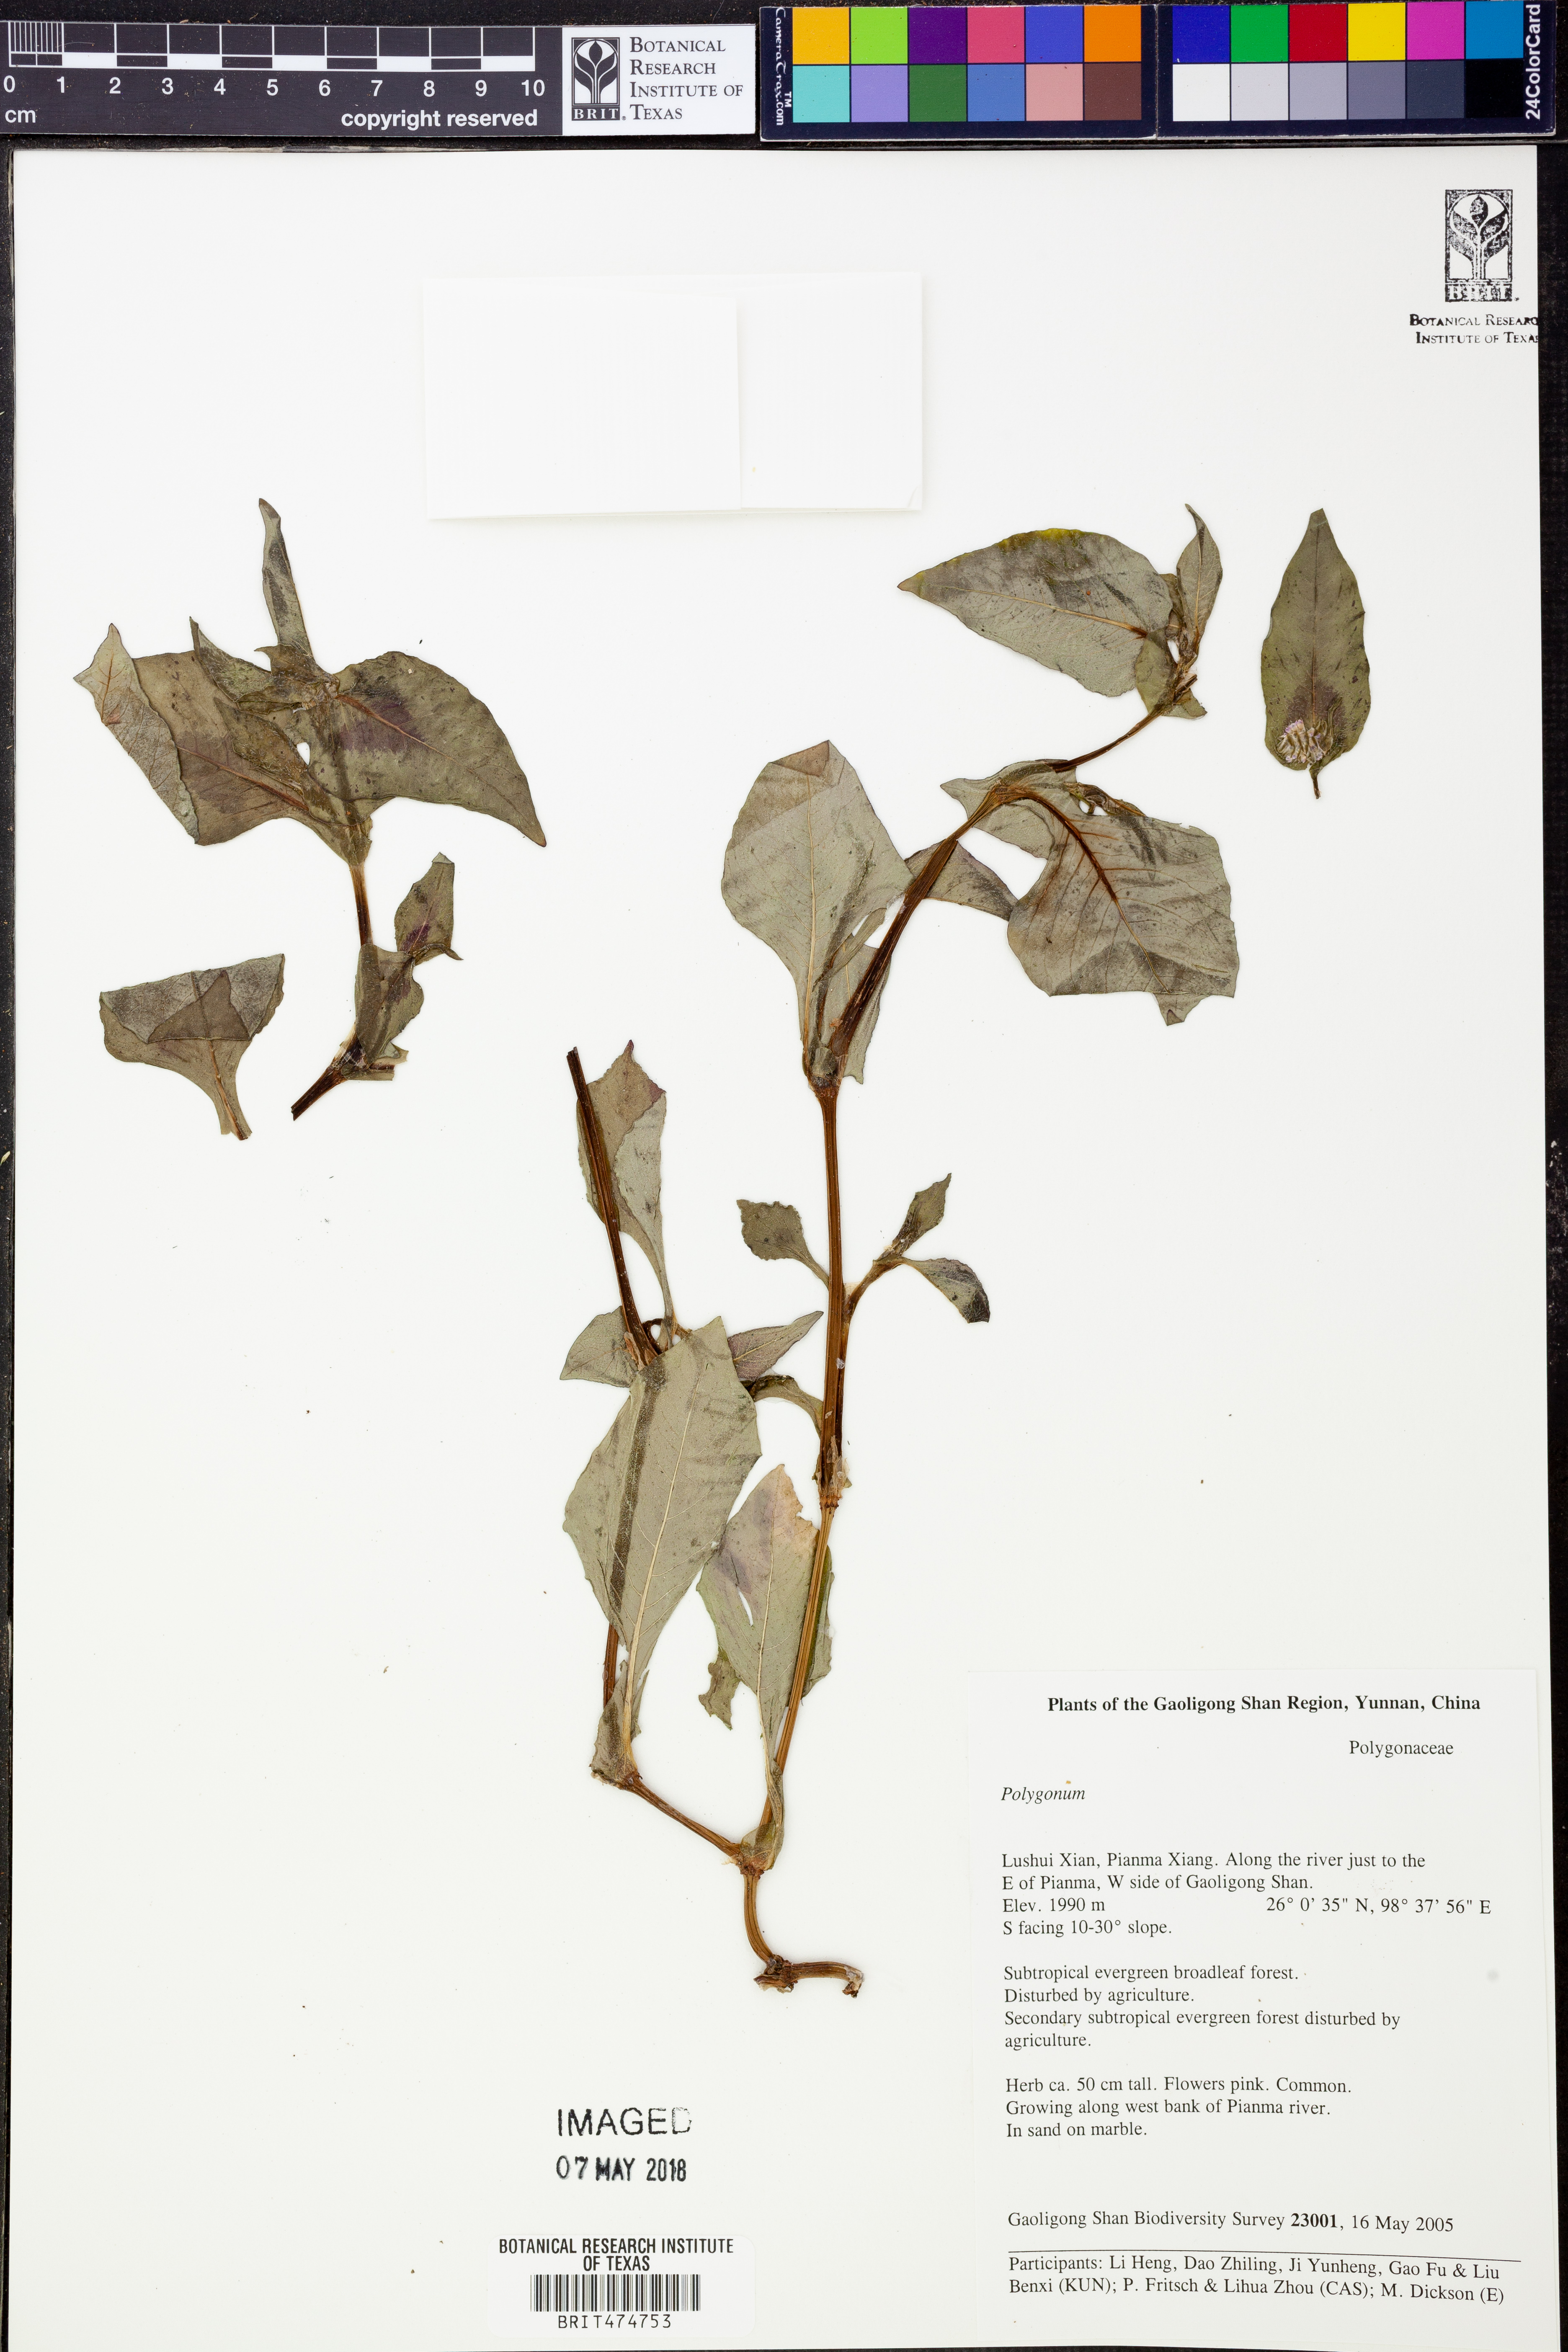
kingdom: Plantae
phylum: Tracheophyta
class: Magnoliopsida
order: Caryophyllales
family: Polygonaceae
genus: Polygonum
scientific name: Polygonum
